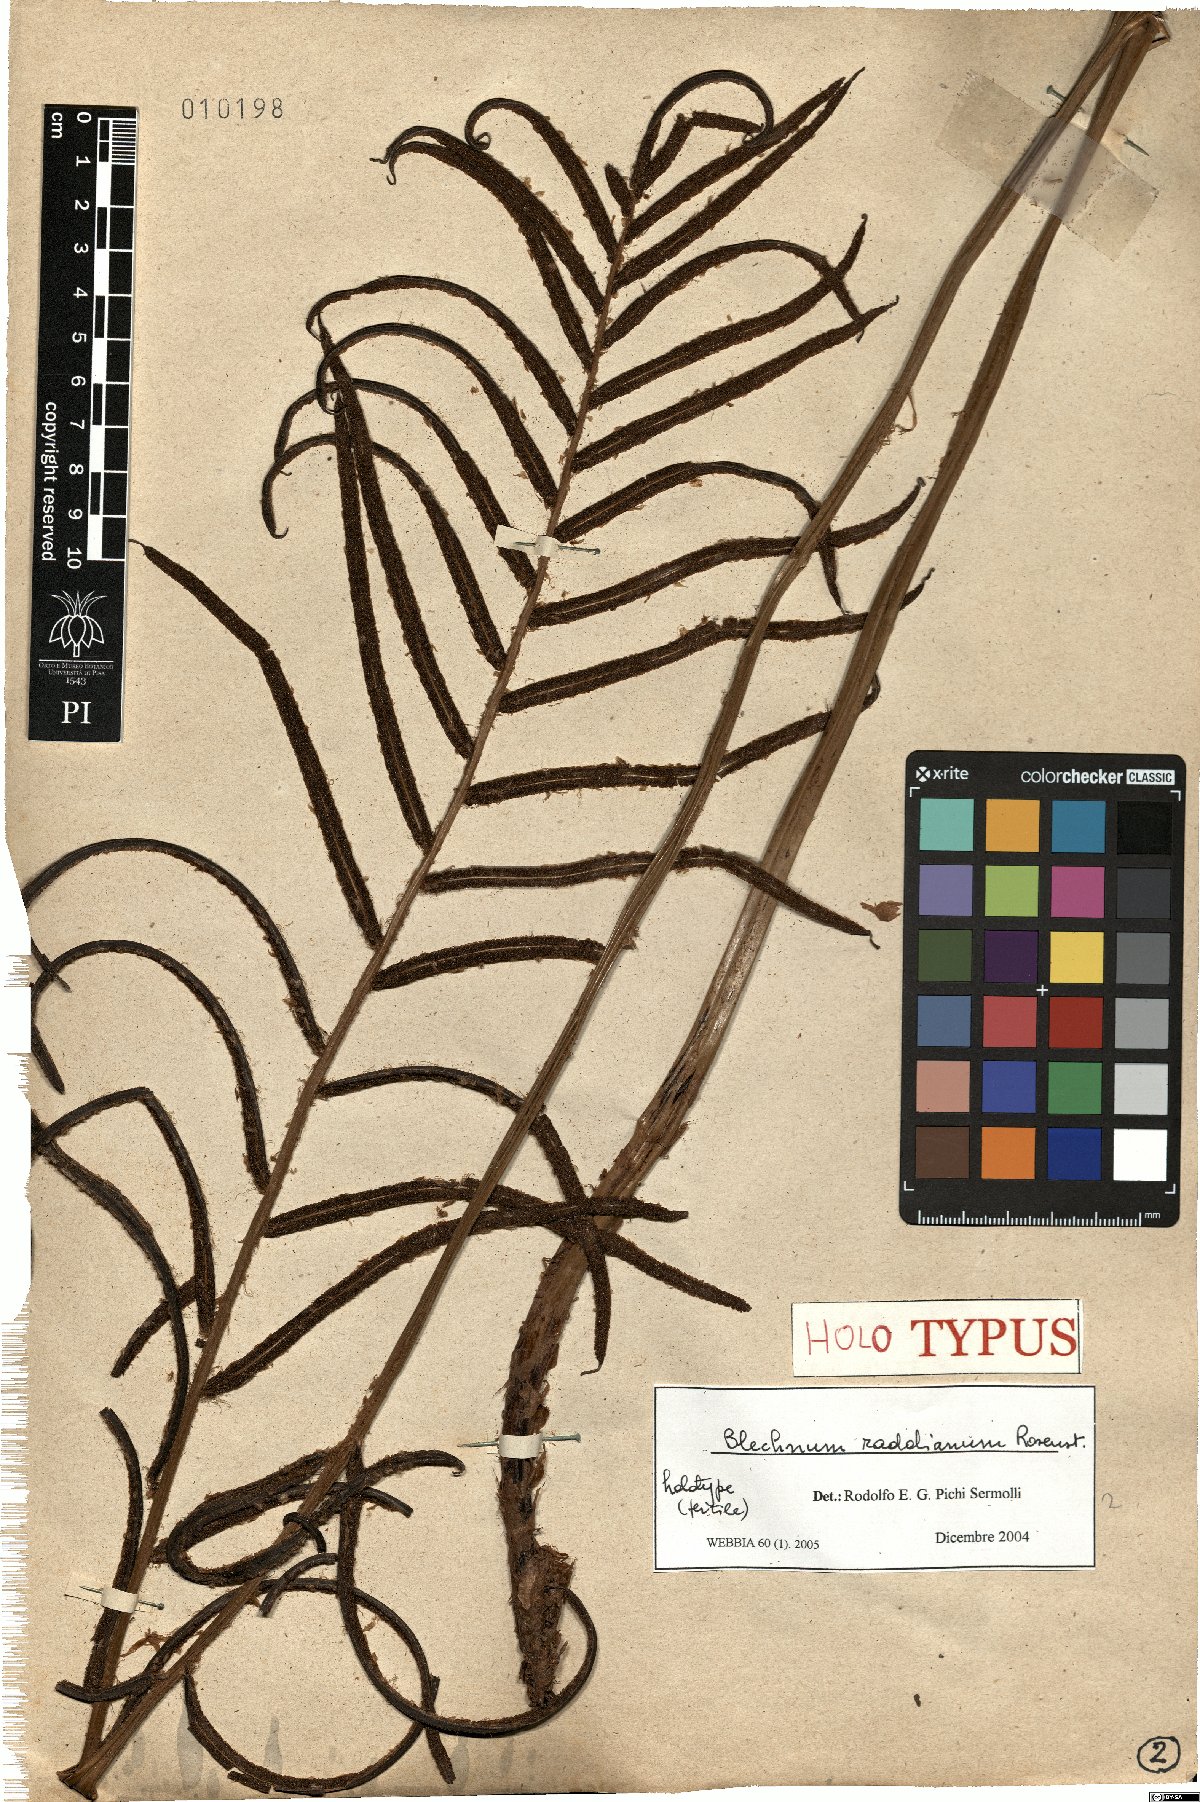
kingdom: Plantae
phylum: Tracheophyta
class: Polypodiopsida
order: Polypodiales
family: Blechnaceae
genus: Parablechnum
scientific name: Parablechnum cordatum
